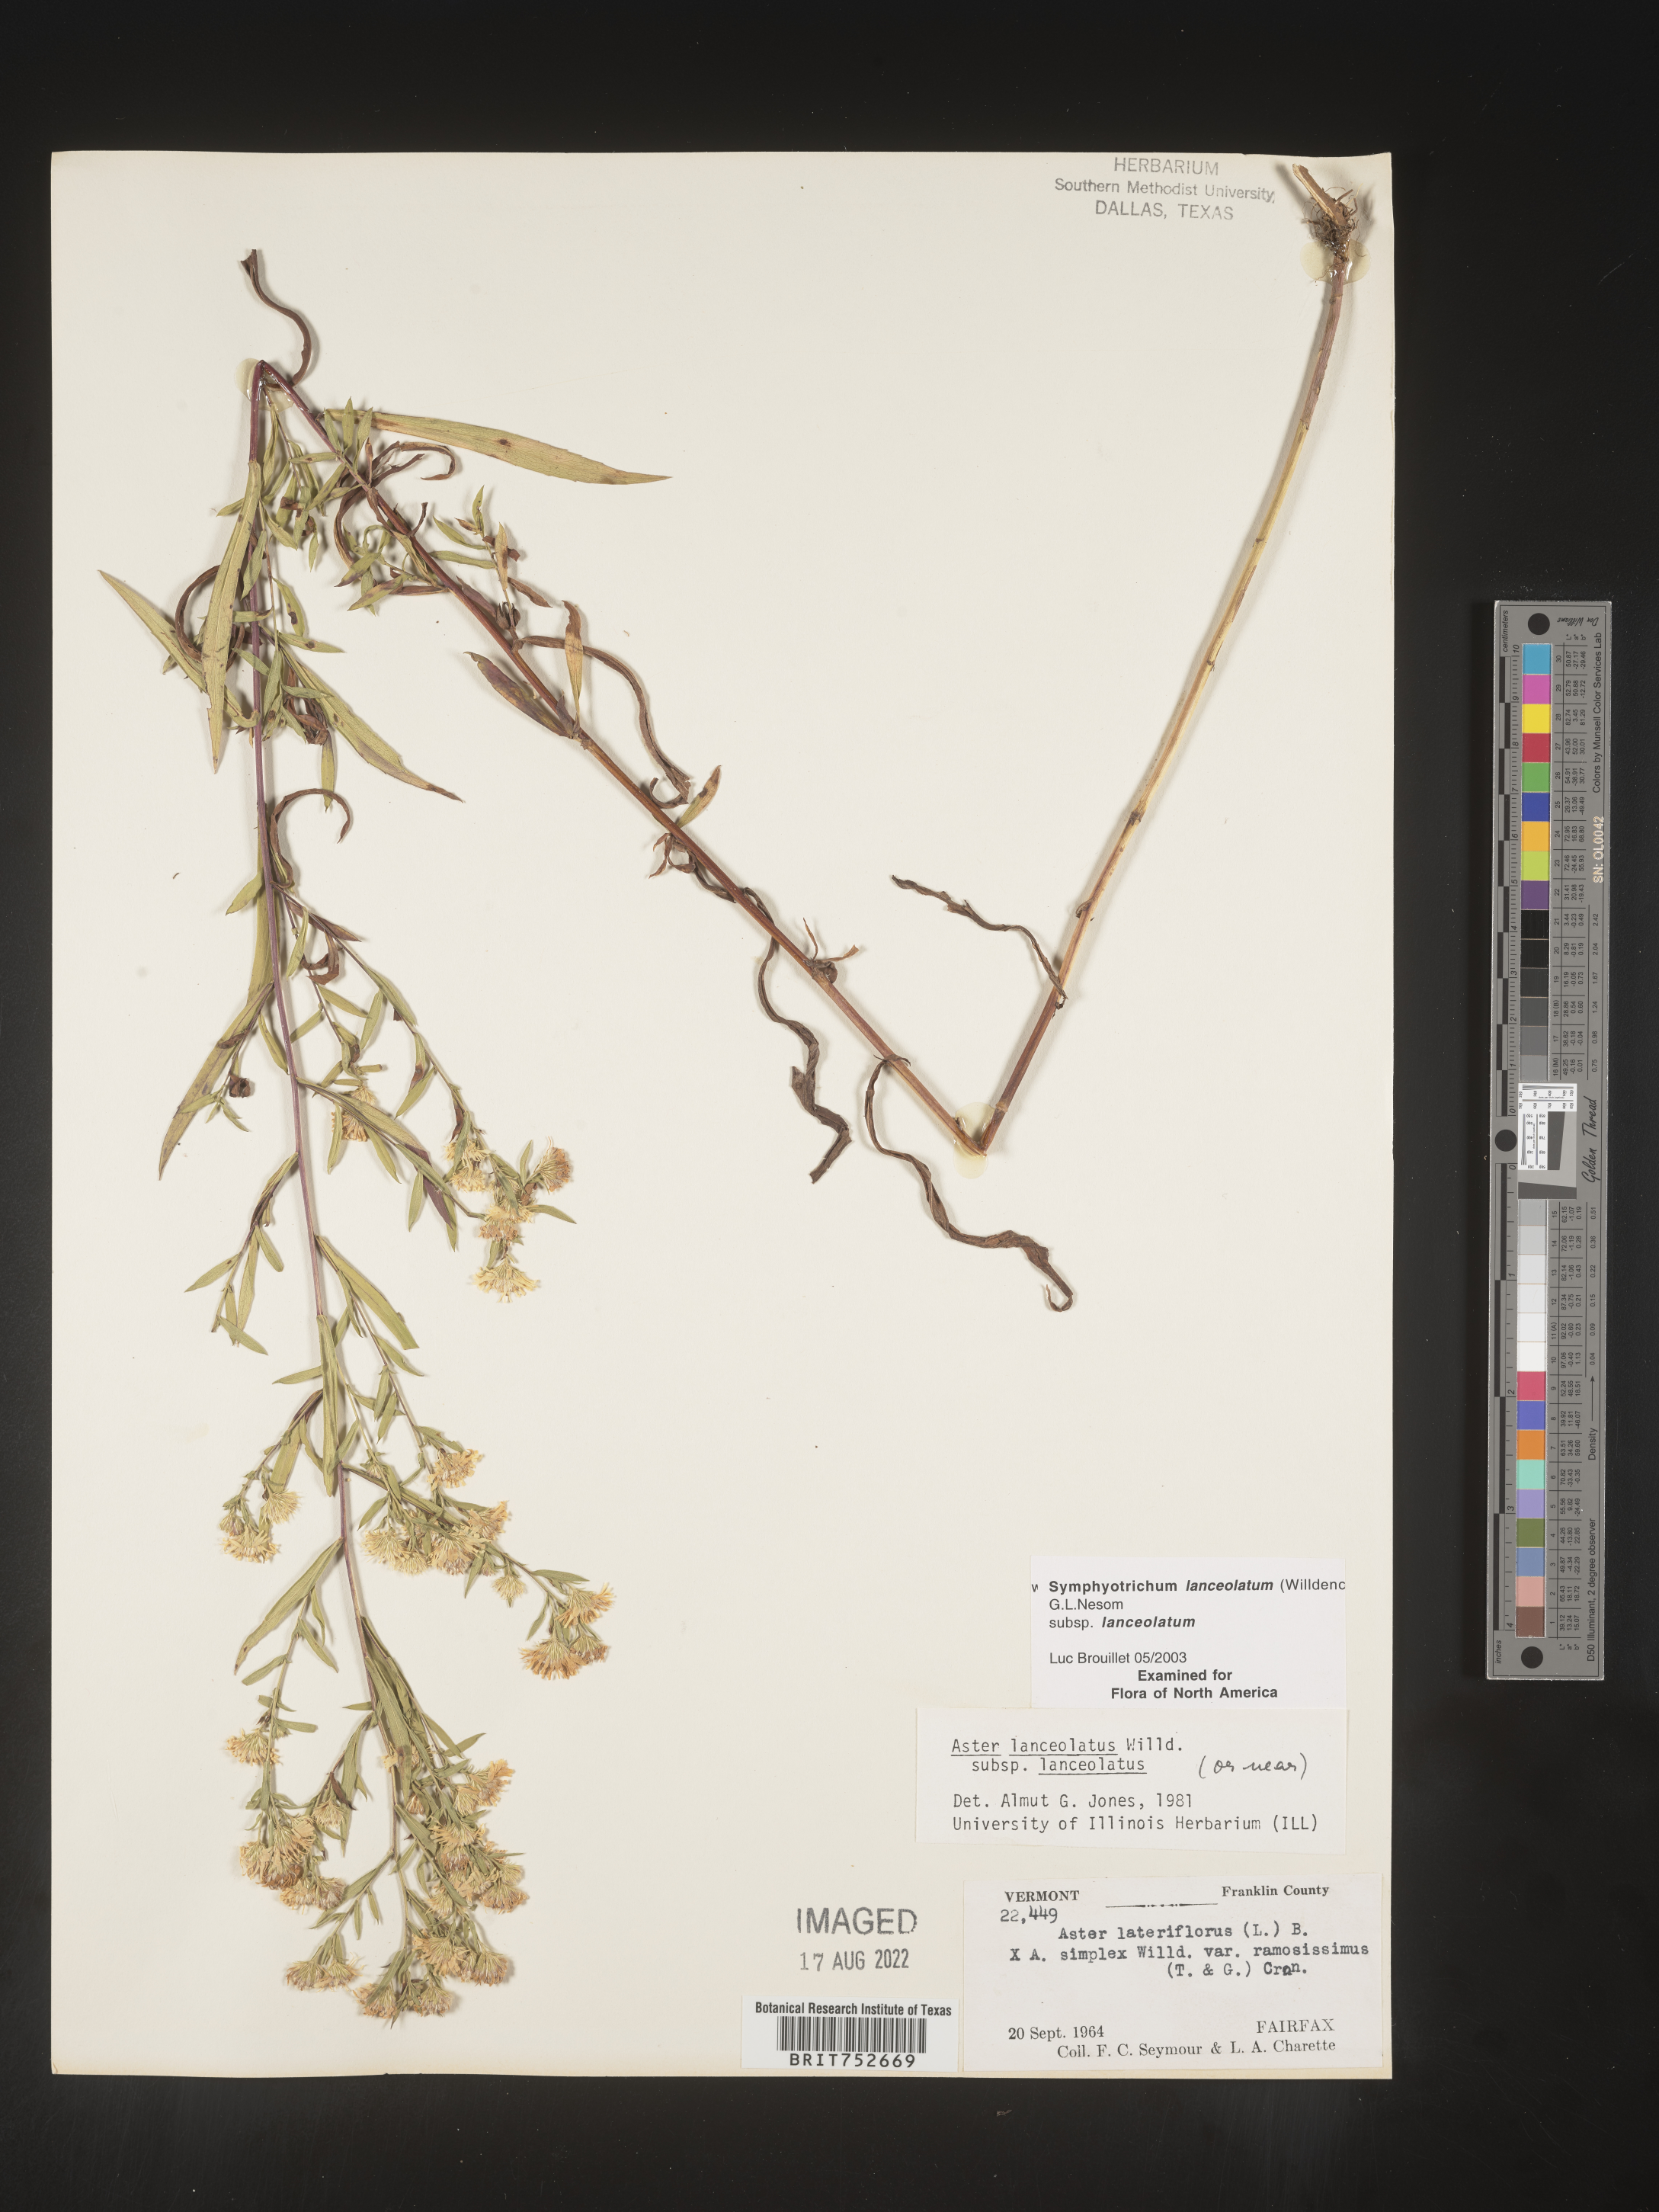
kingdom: Plantae
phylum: Tracheophyta
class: Magnoliopsida
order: Asterales
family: Asteraceae
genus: Symphyotrichum
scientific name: Symphyotrichum lanceolatum
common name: Panicled aster
